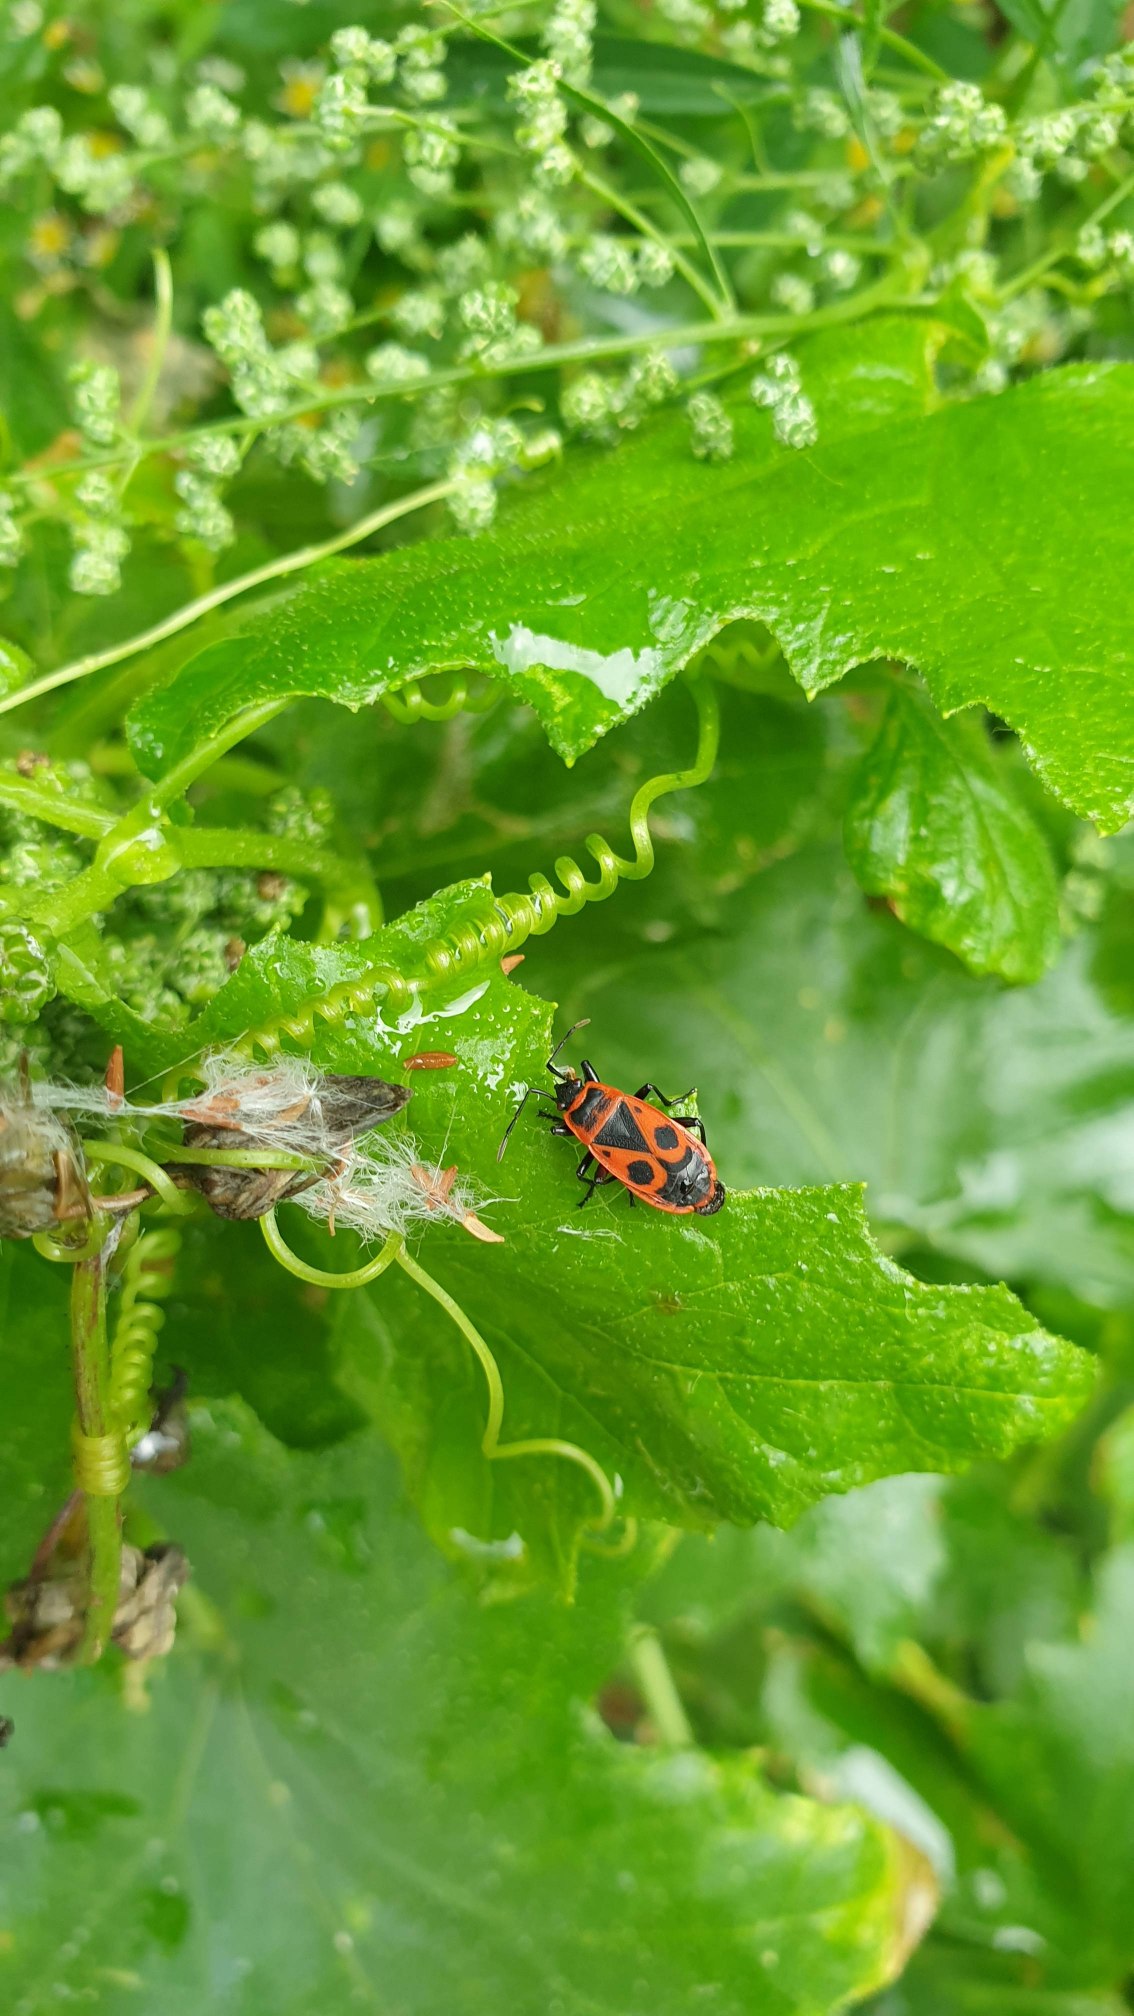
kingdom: Animalia
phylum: Arthropoda
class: Insecta
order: Hemiptera
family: Pyrrhocoridae
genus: Pyrrhocoris
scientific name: Pyrrhocoris apterus
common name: Ildtæge
